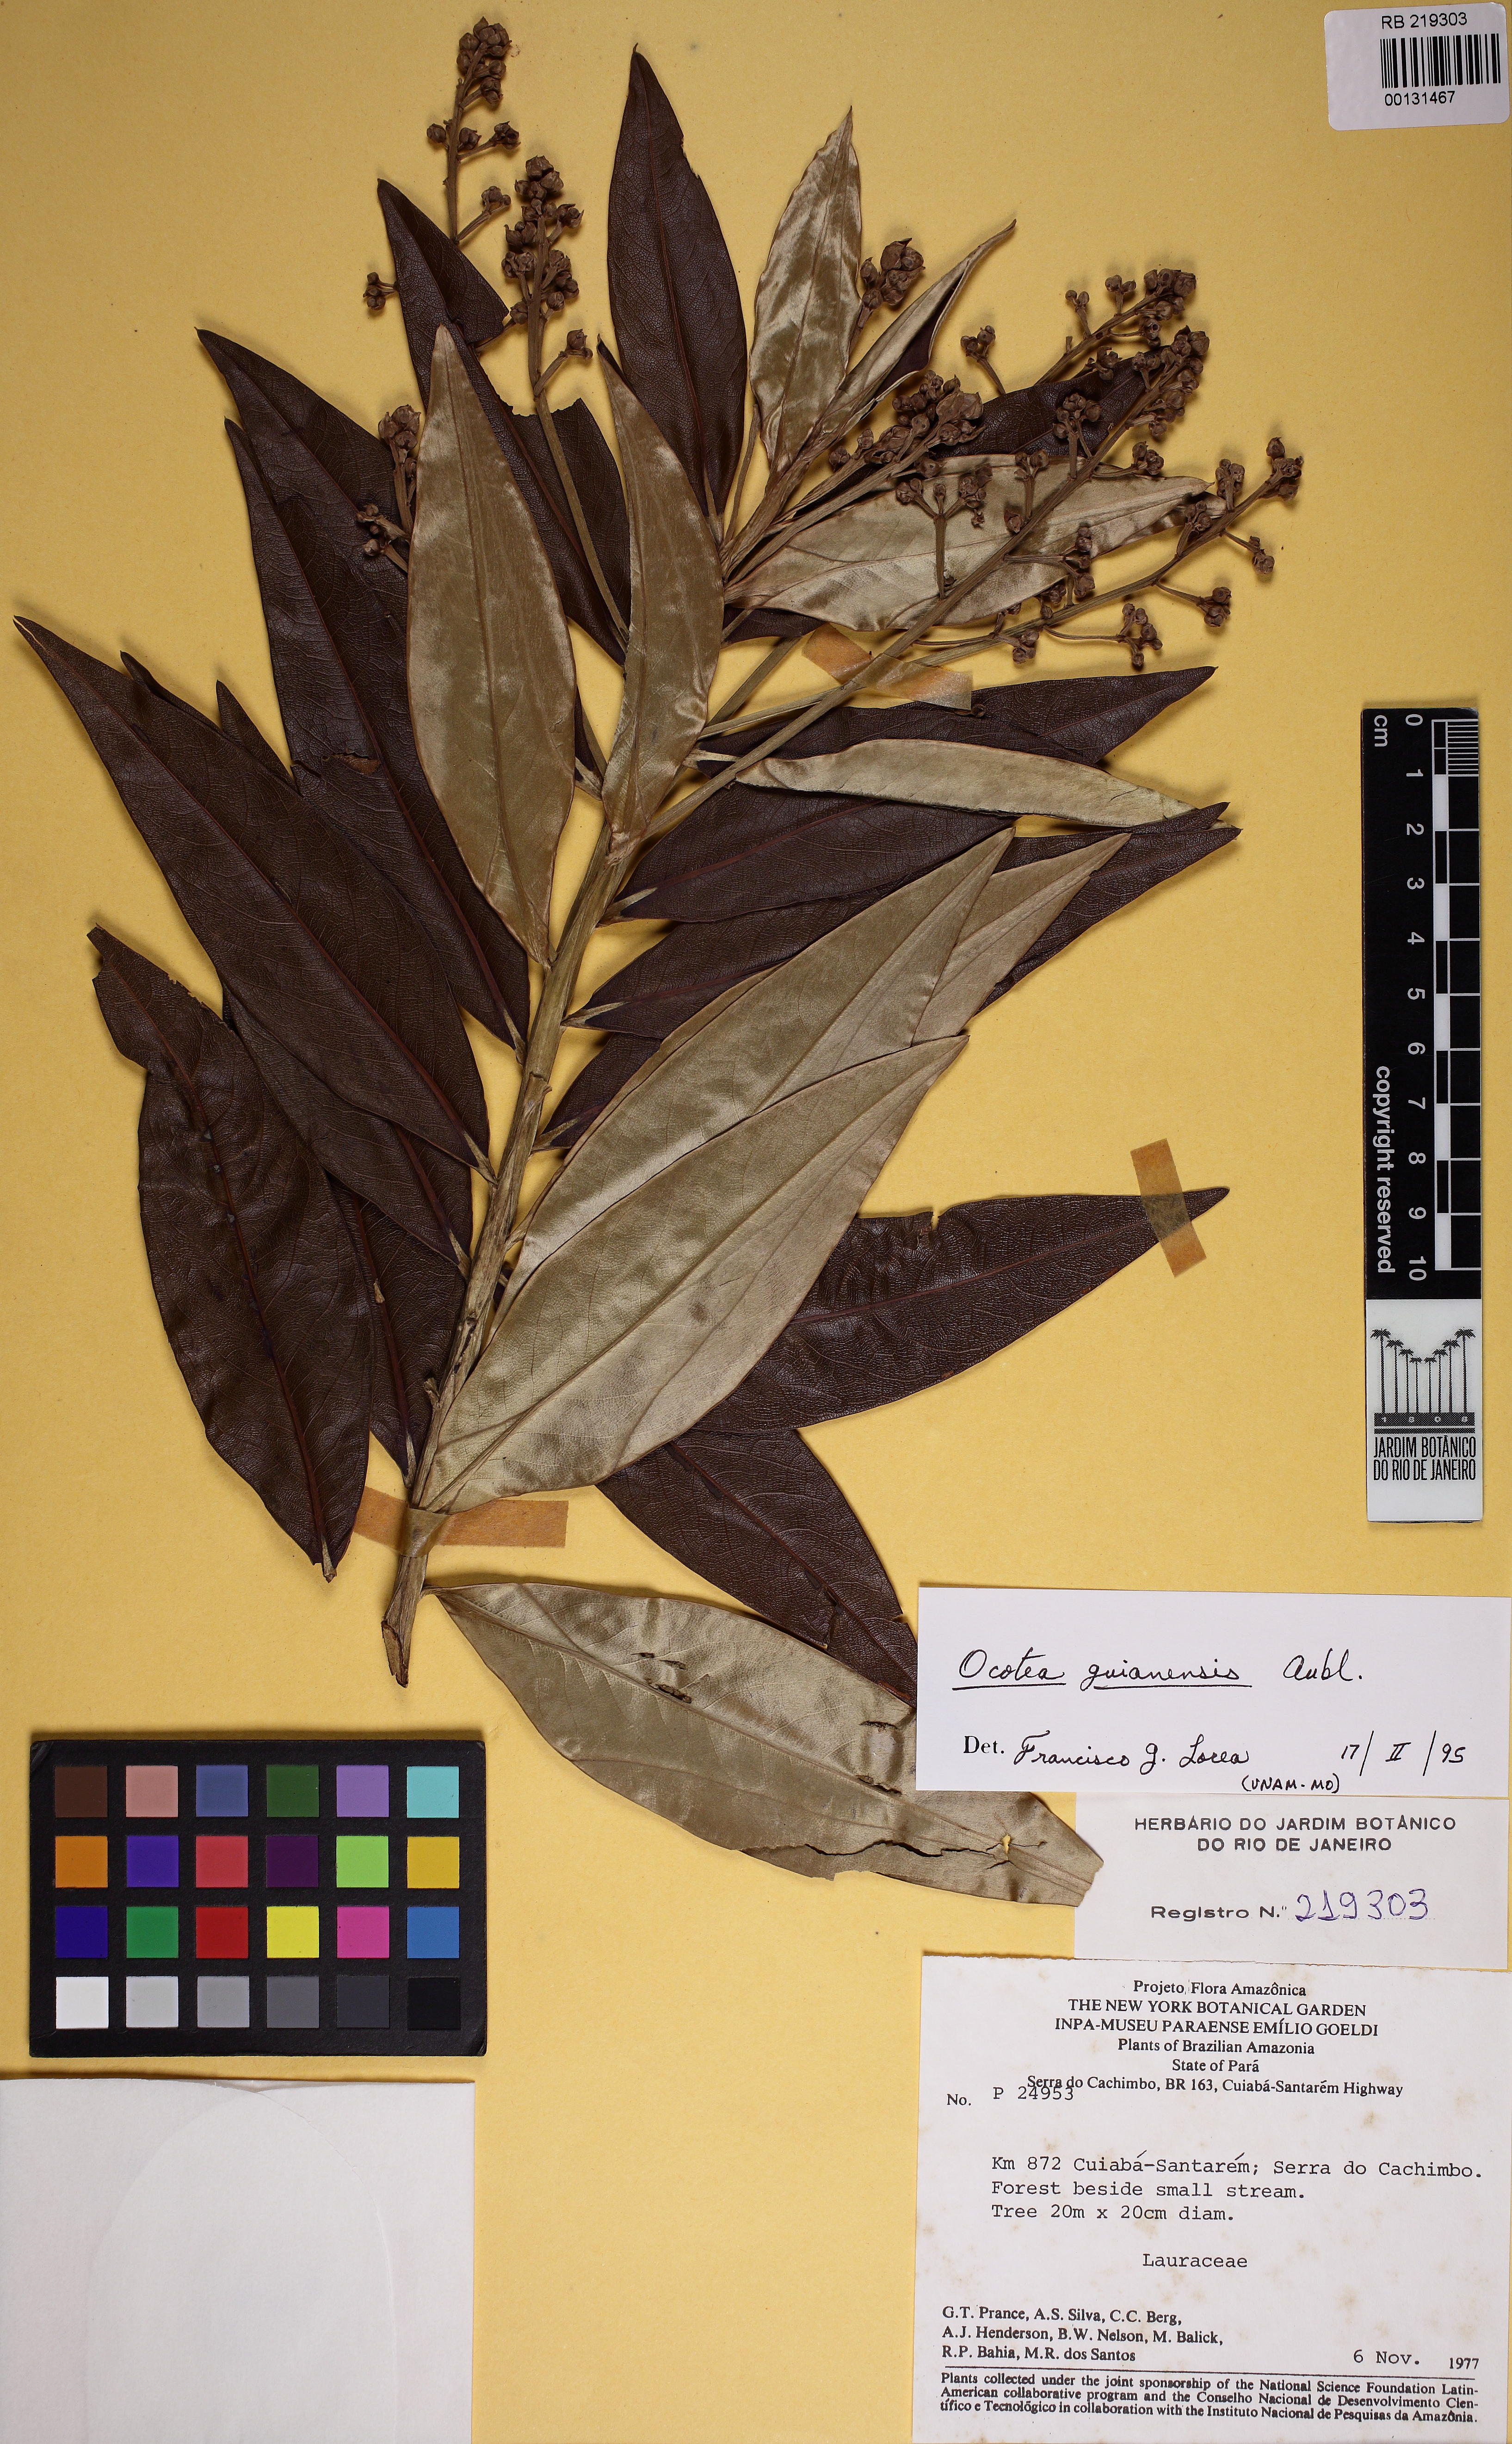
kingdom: Plantae
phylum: Tracheophyta
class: Magnoliopsida
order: Laurales
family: Lauraceae
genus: Ocotea
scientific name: Ocotea guianensis
